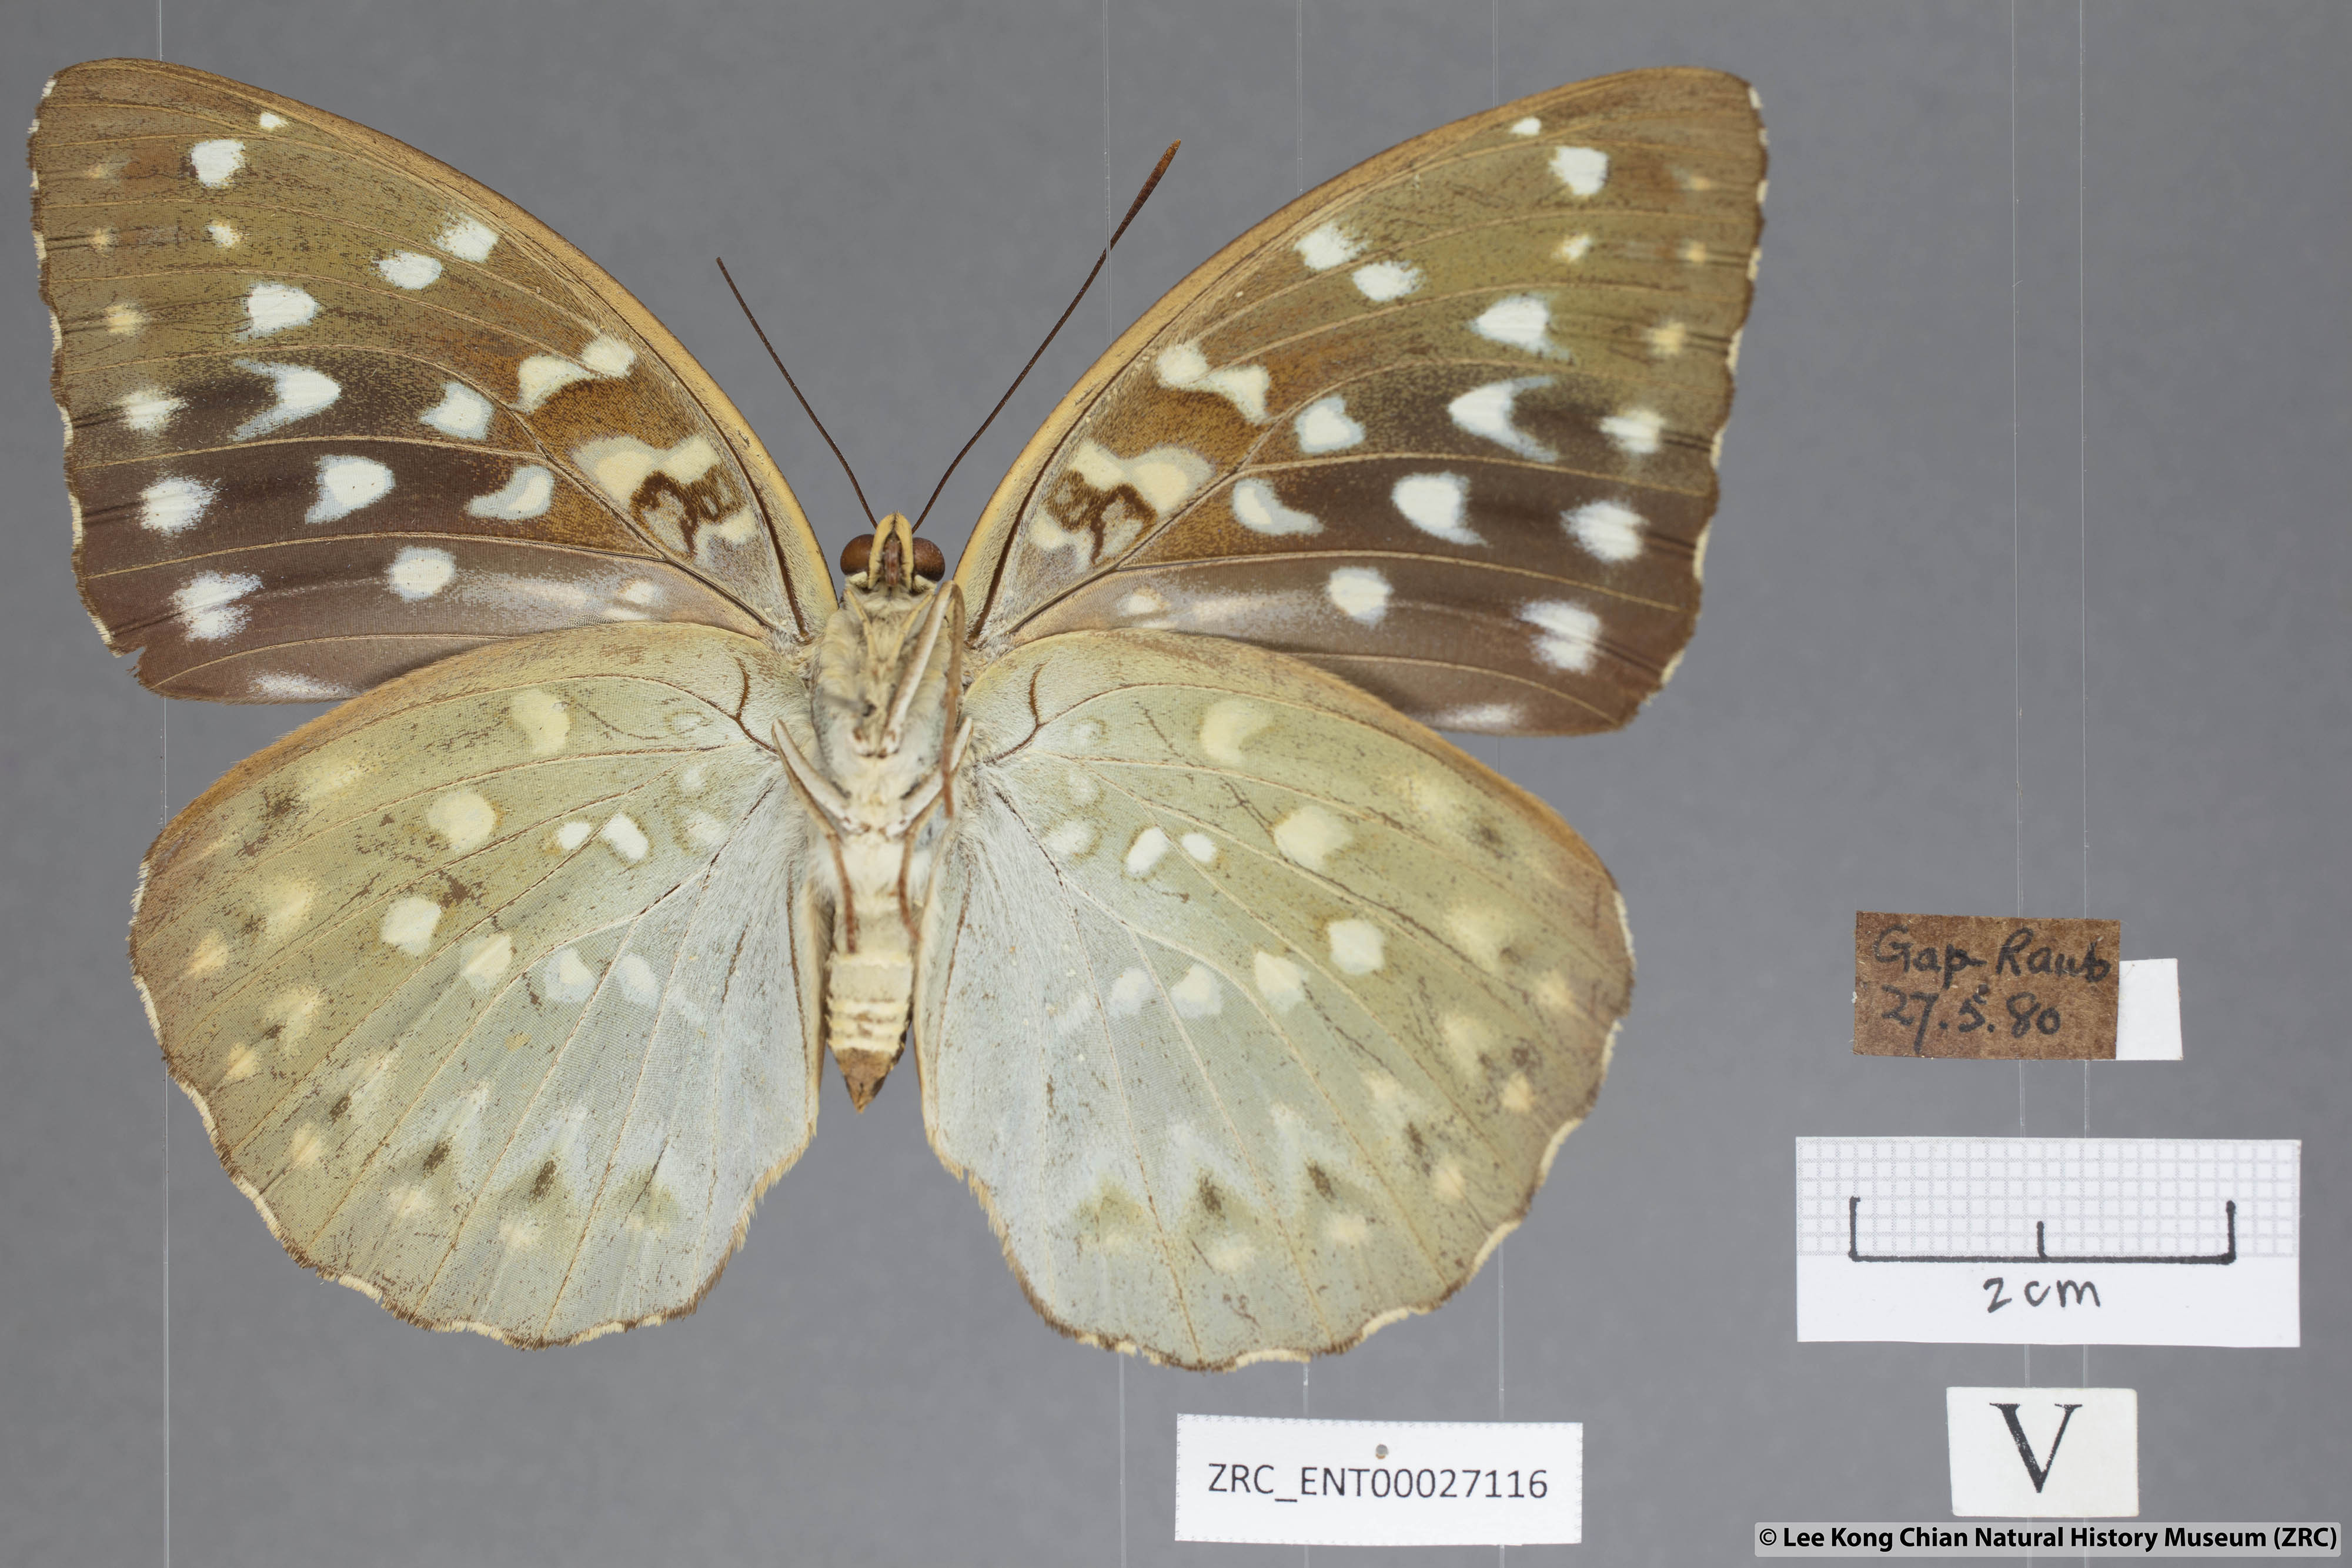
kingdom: Animalia
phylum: Arthropoda
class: Insecta
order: Lepidoptera
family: Nymphalidae
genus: Lexias
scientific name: Lexias pardalis
